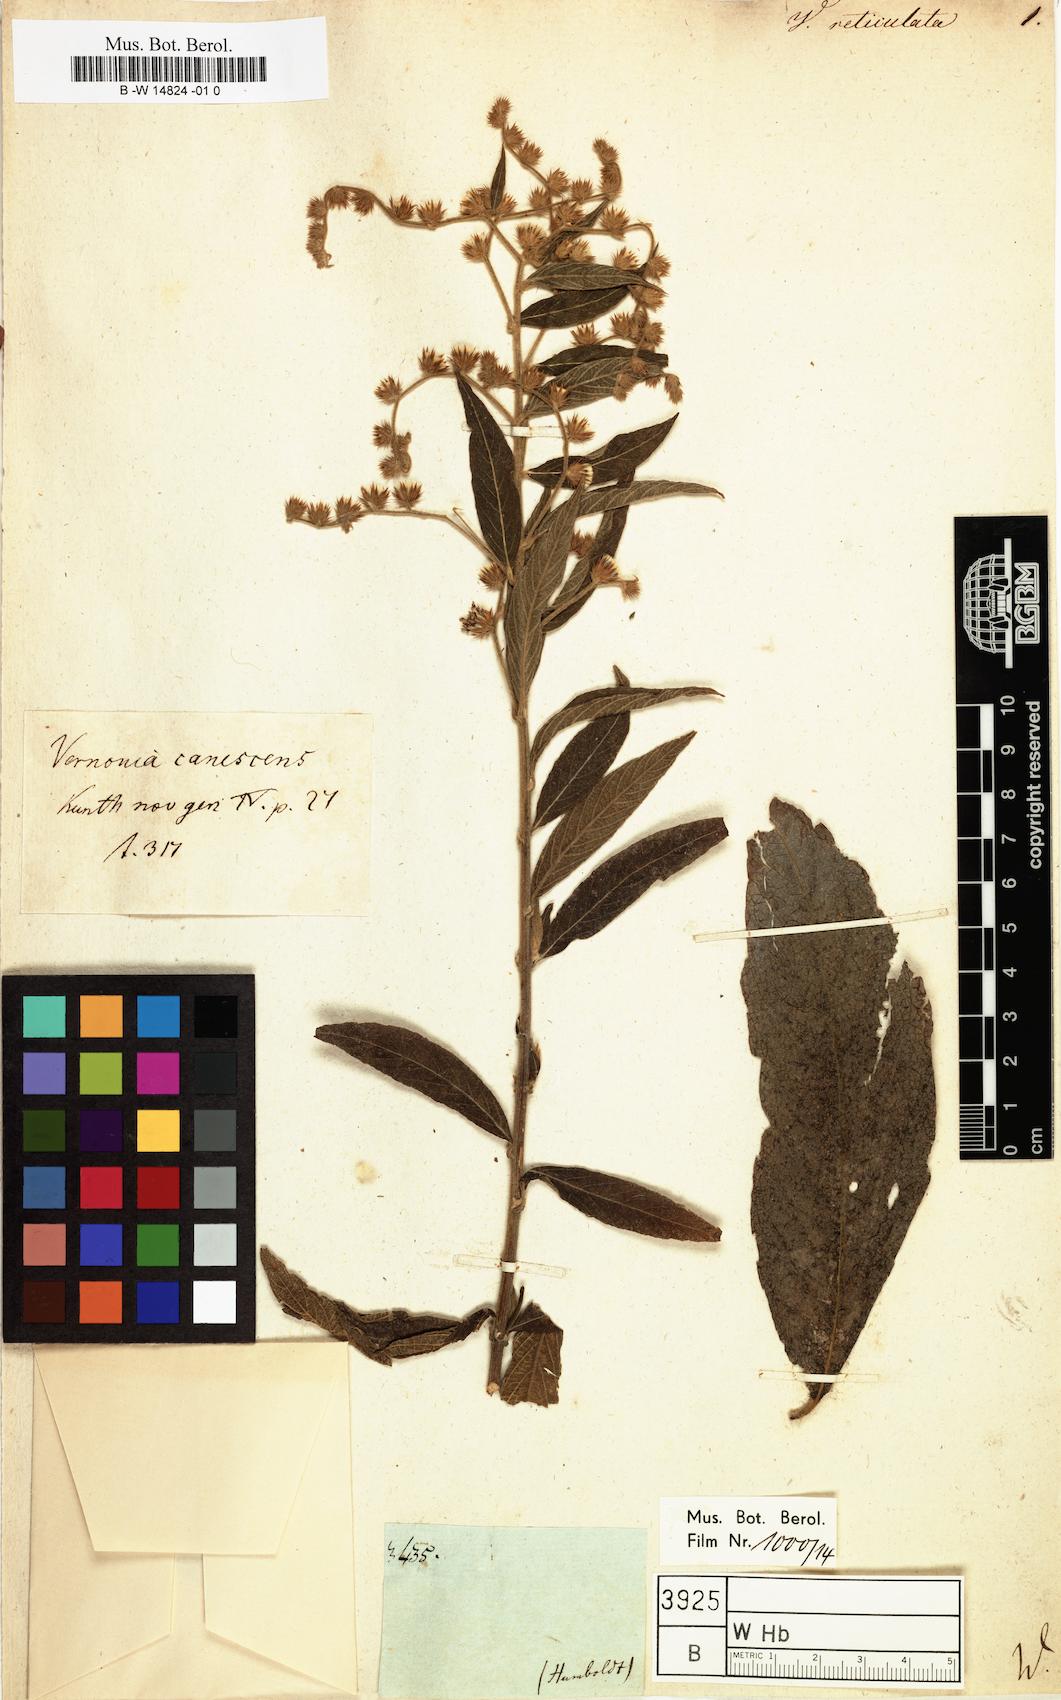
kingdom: Plantae
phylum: Tracheophyta
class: Magnoliopsida
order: Asterales
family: Asteraceae
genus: Lepidaploa
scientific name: Lepidaploa canescens
